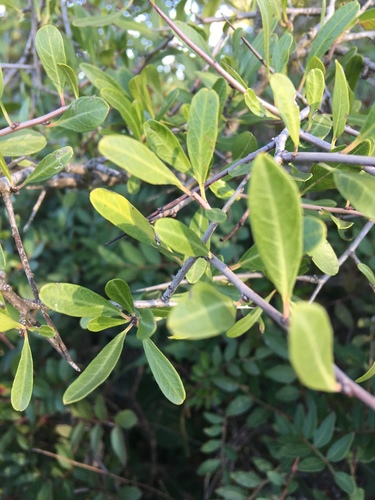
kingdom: Plantae
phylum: Tracheophyta
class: Magnoliopsida
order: Rosales
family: Rhamnaceae
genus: Rhamnus
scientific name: Rhamnus oleoides
